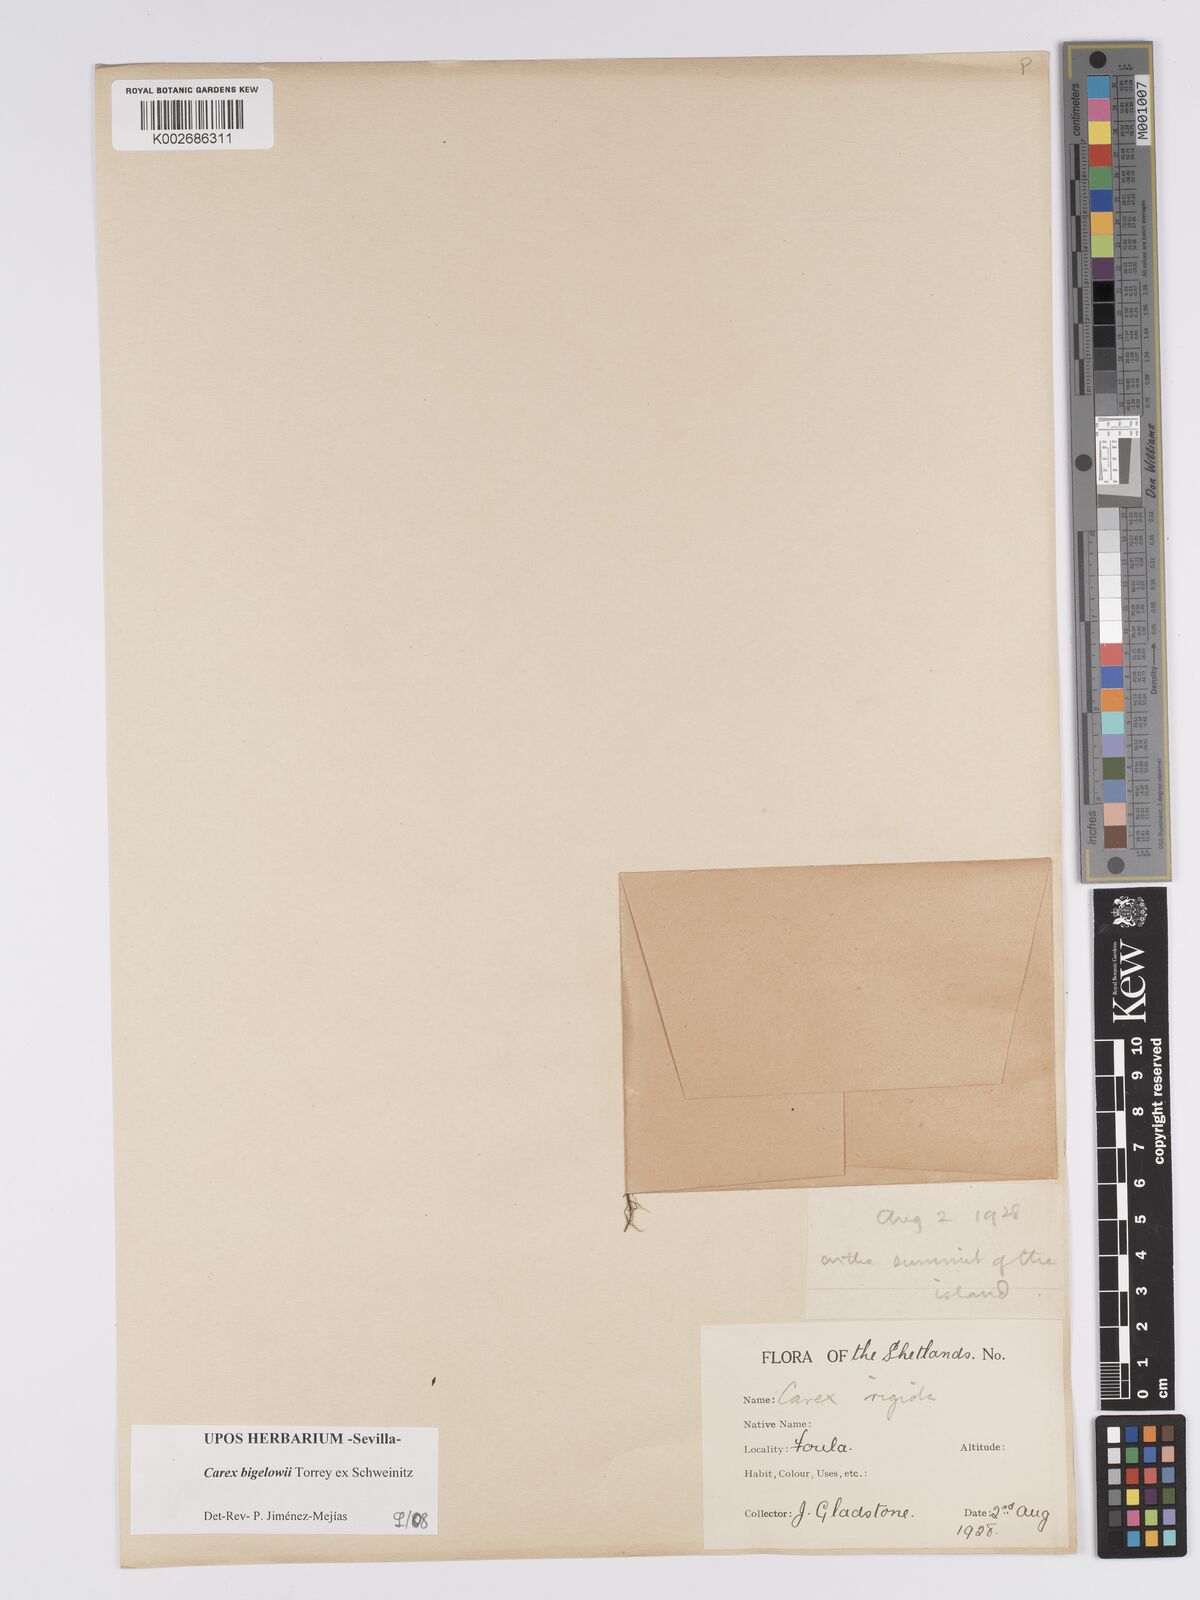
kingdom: Plantae
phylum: Tracheophyta
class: Liliopsida
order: Poales
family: Cyperaceae
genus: Carex
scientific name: Carex bigelowii
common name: Stiff sedge
